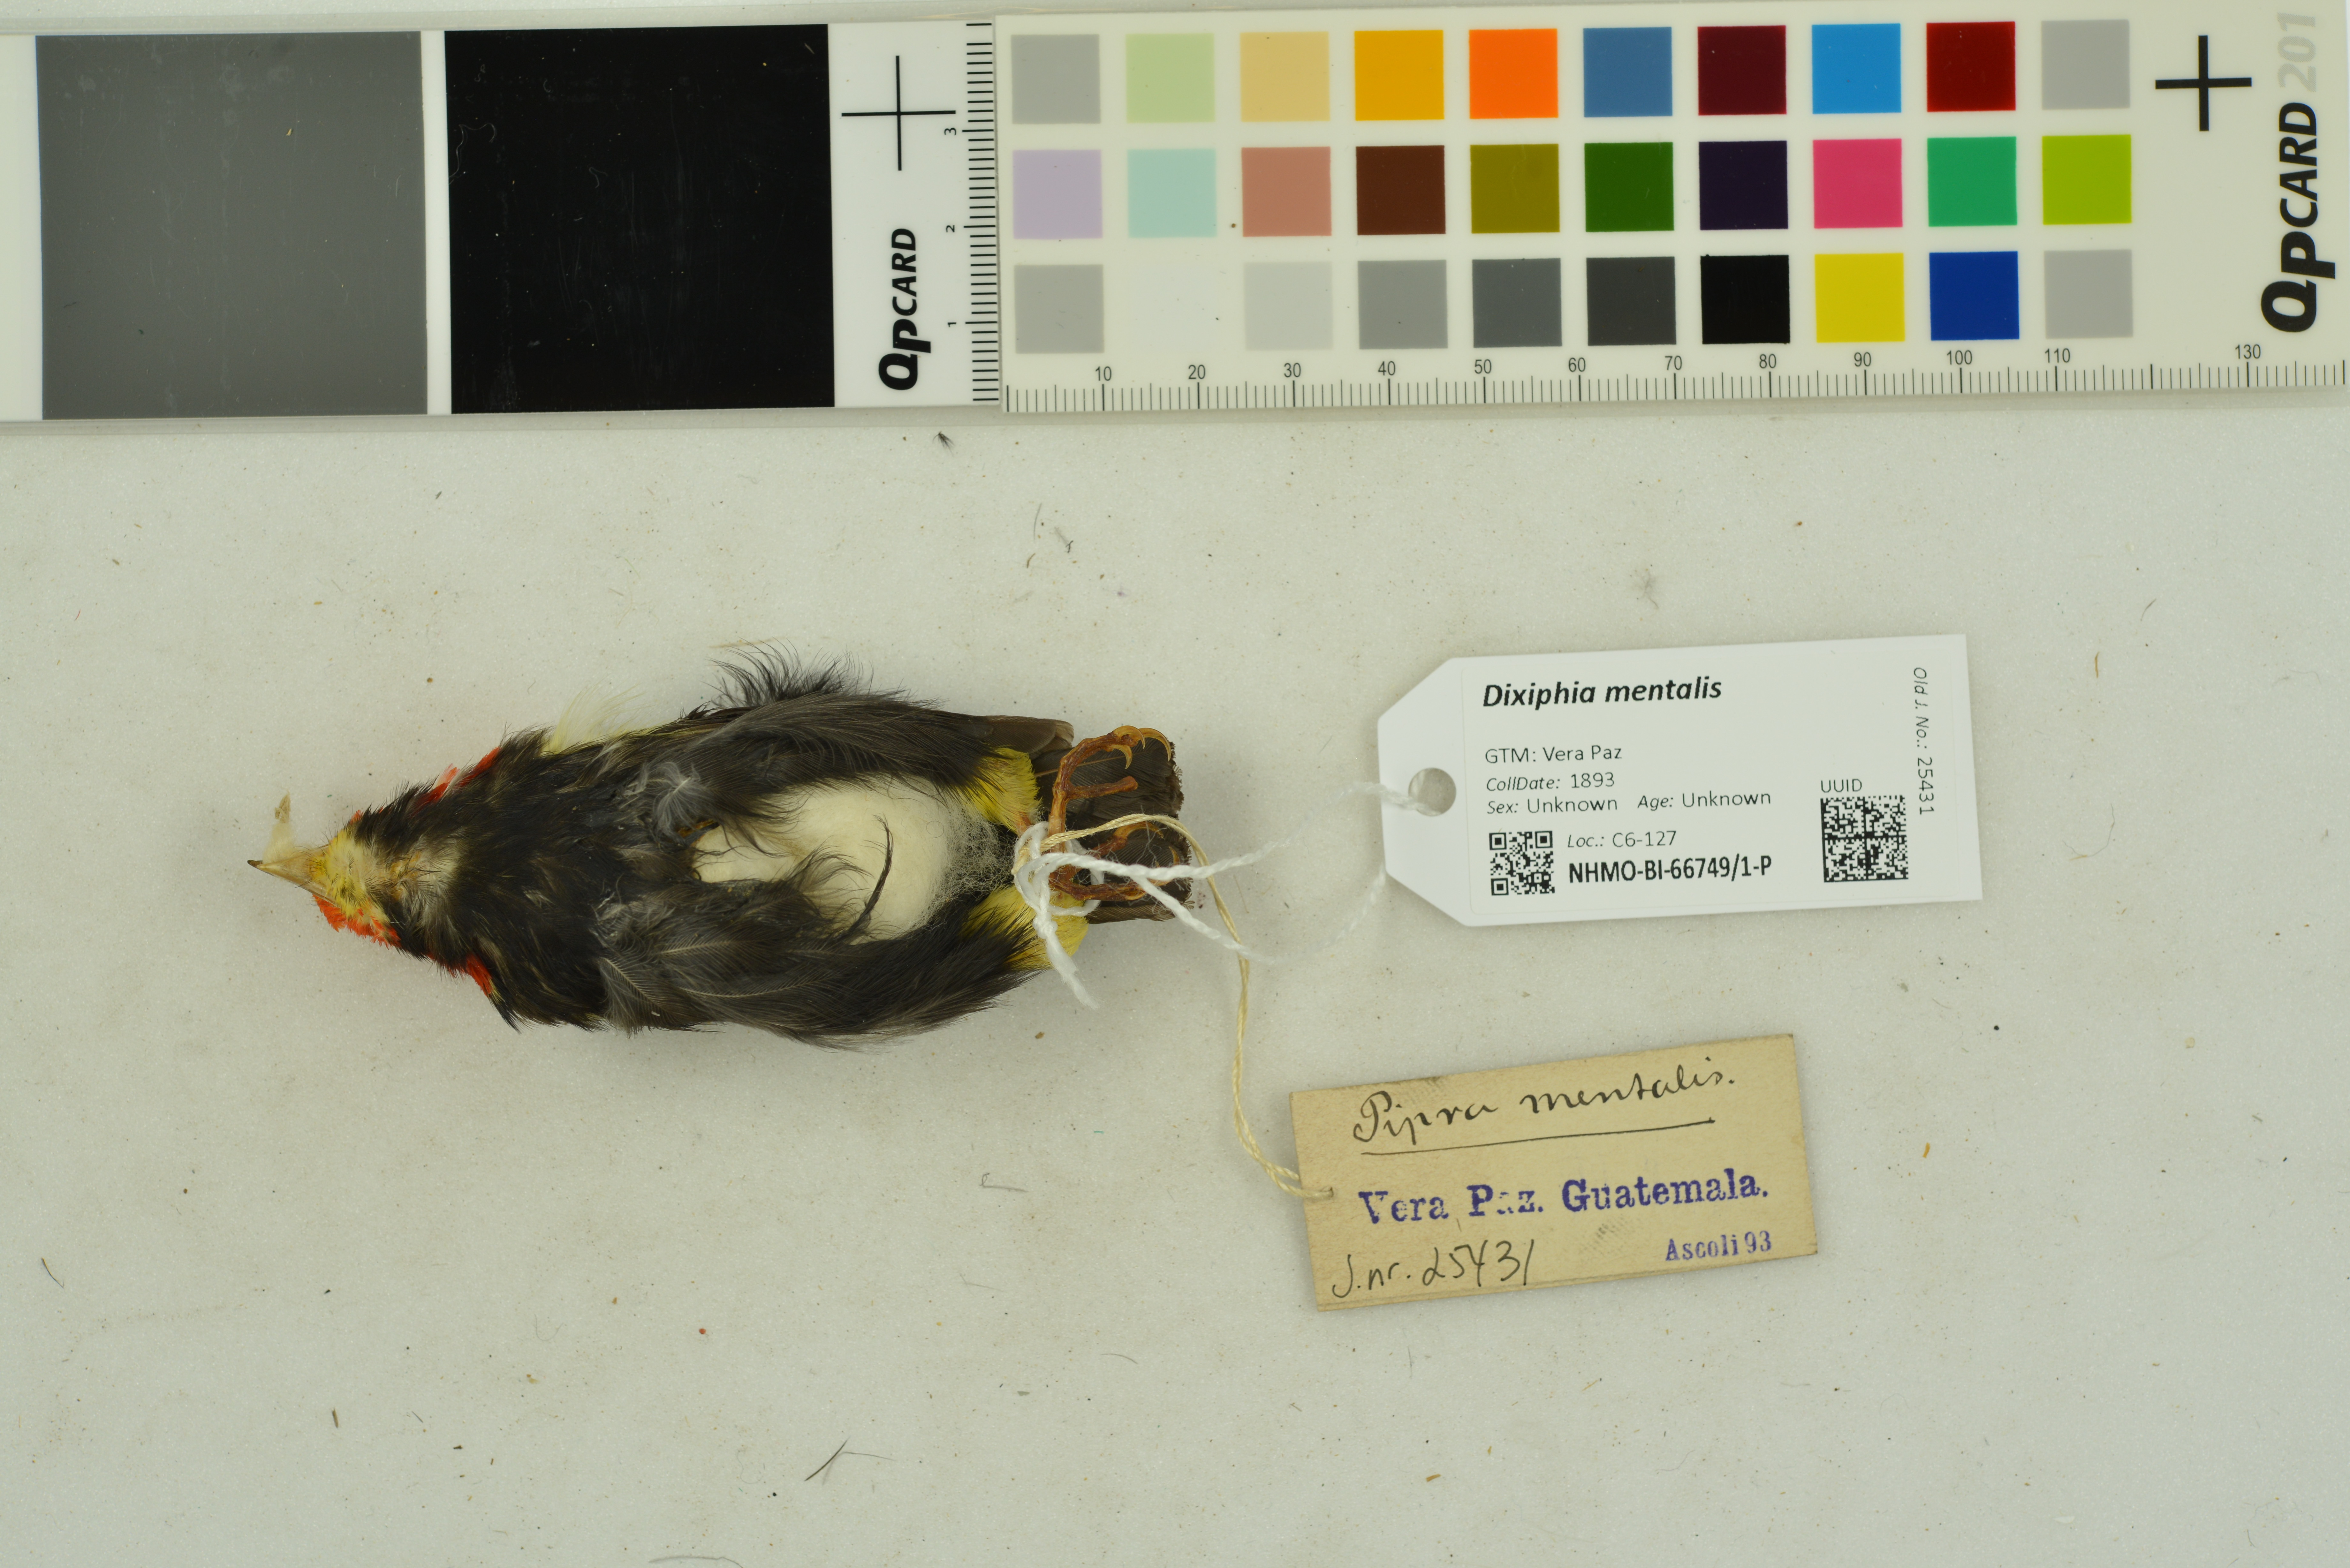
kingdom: Animalia
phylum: Chordata
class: Aves
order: Passeriformes
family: Pipridae
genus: Pipra
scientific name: Pipra mentalis
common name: Red-capped manakin
